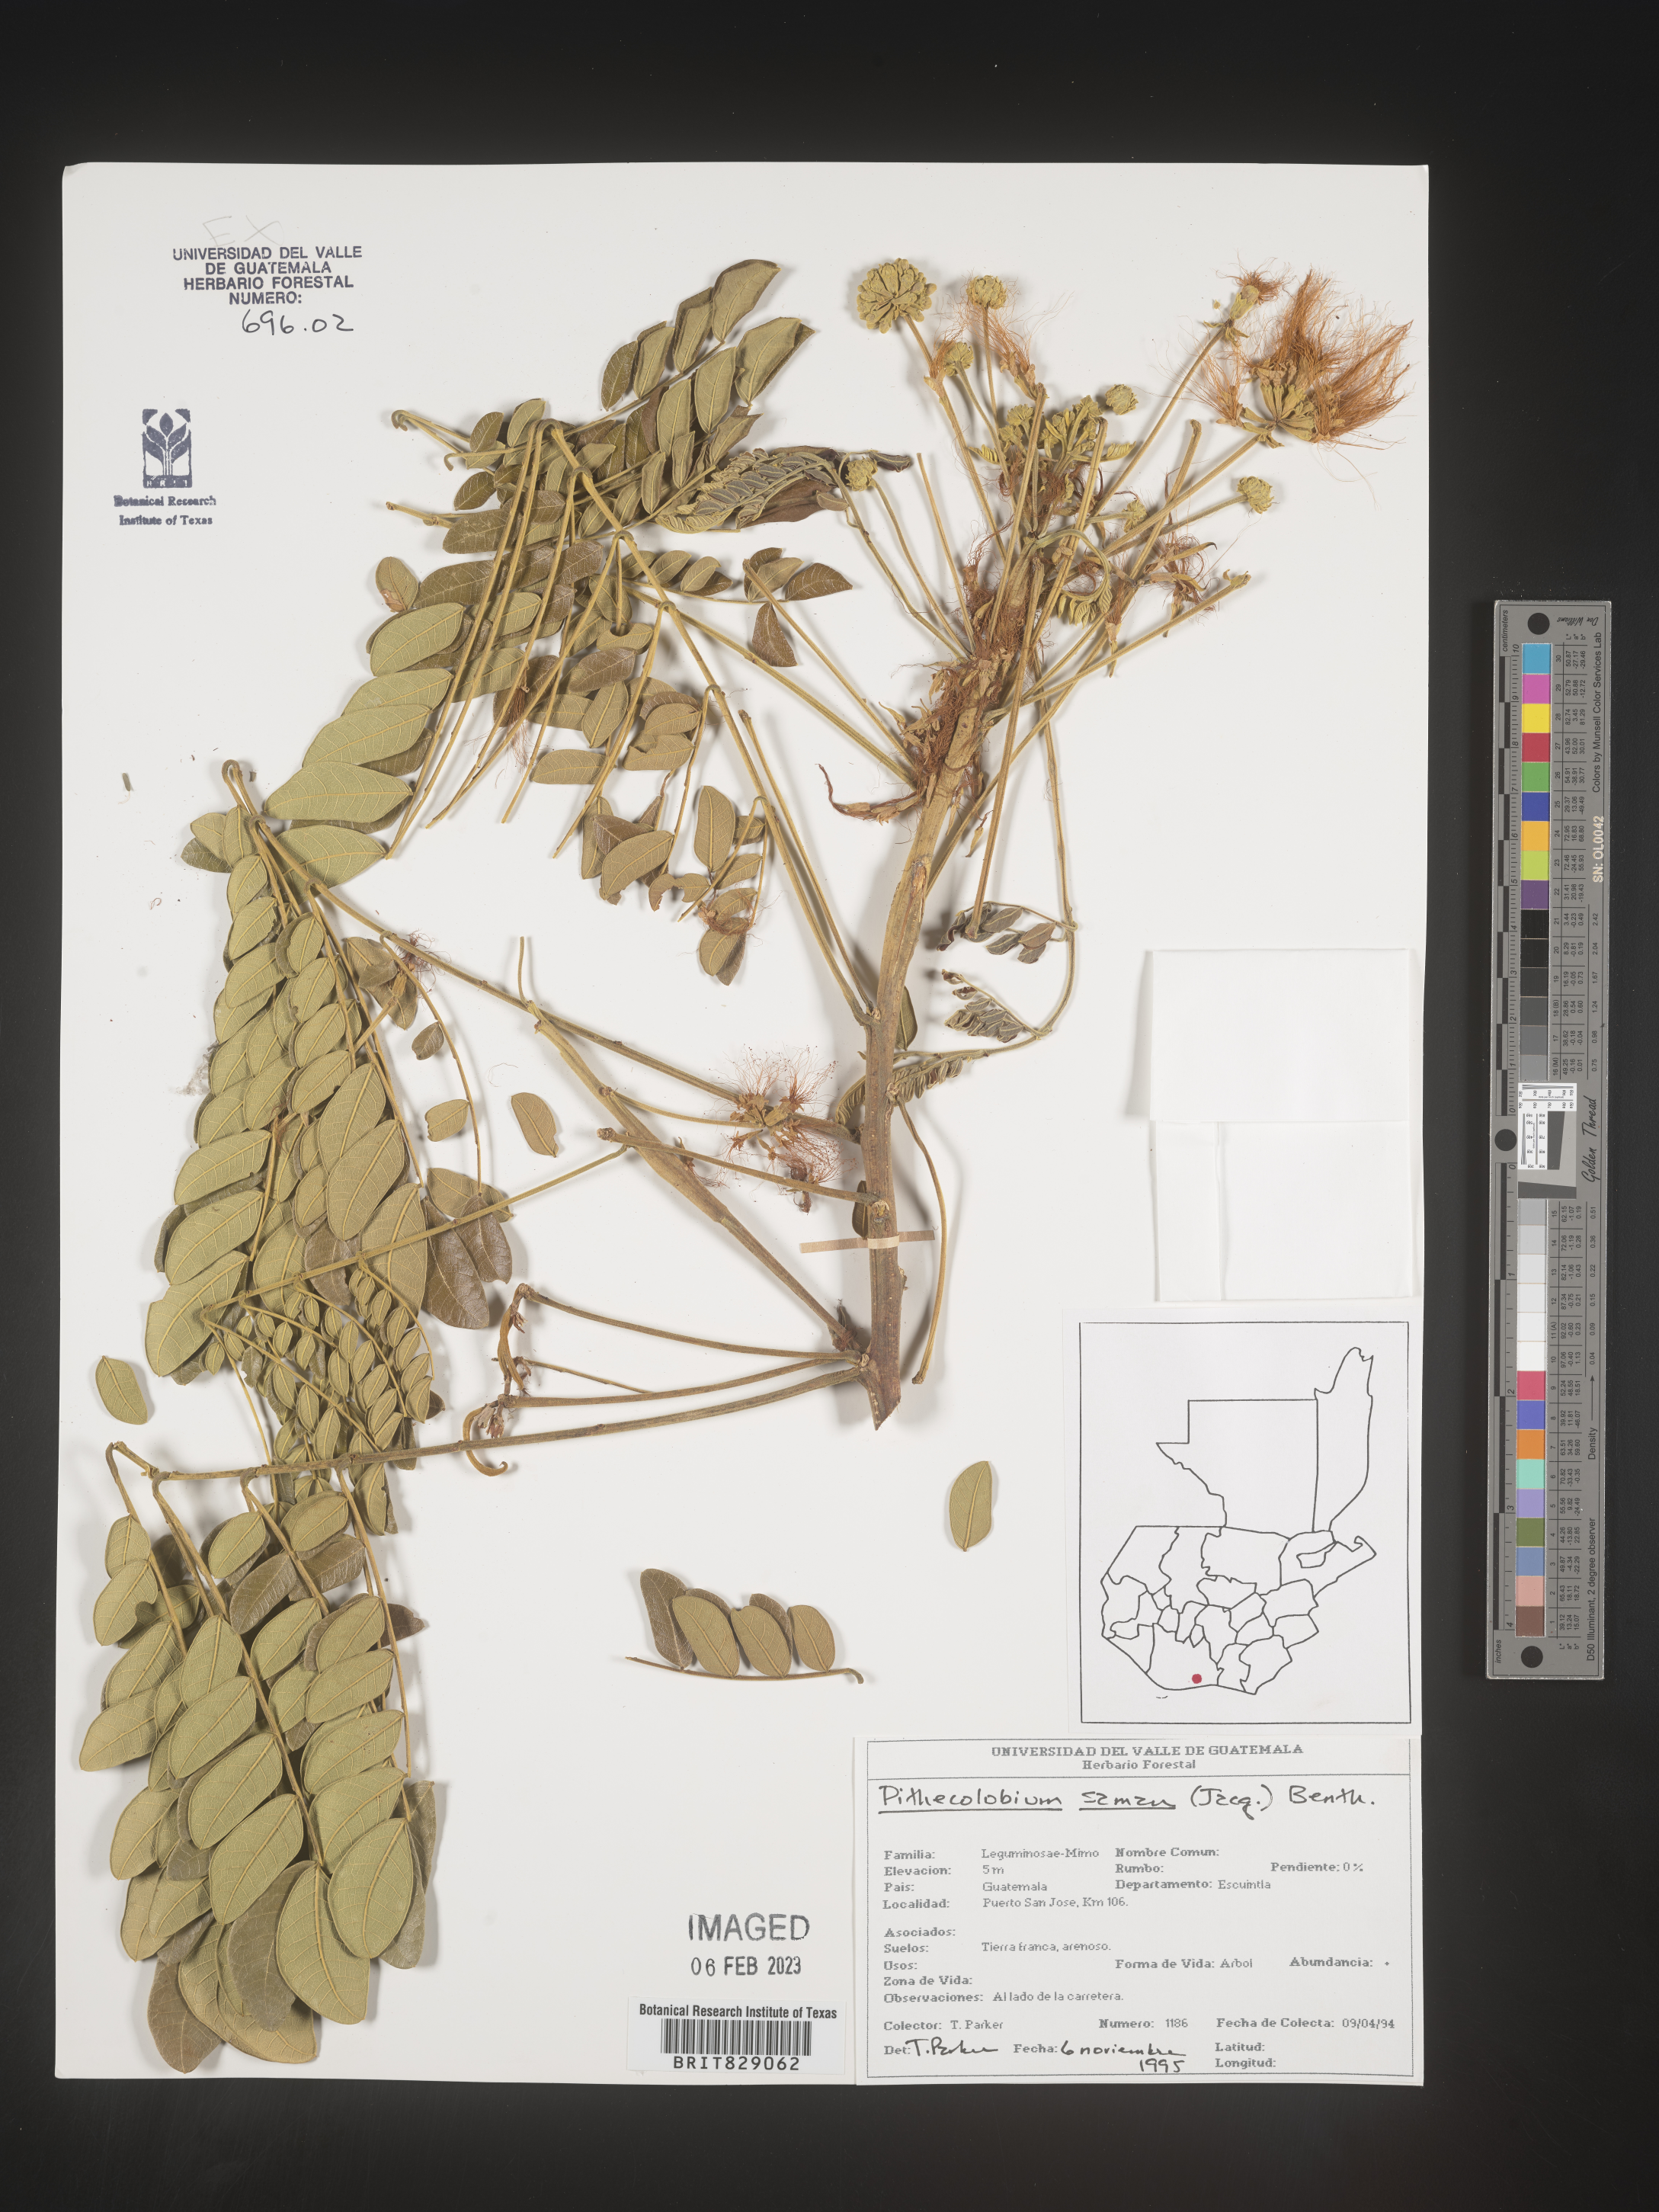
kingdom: Plantae
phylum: Tracheophyta
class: Magnoliopsida
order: Fabales
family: Fabaceae
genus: Pithecellobium
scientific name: Pithecellobium
